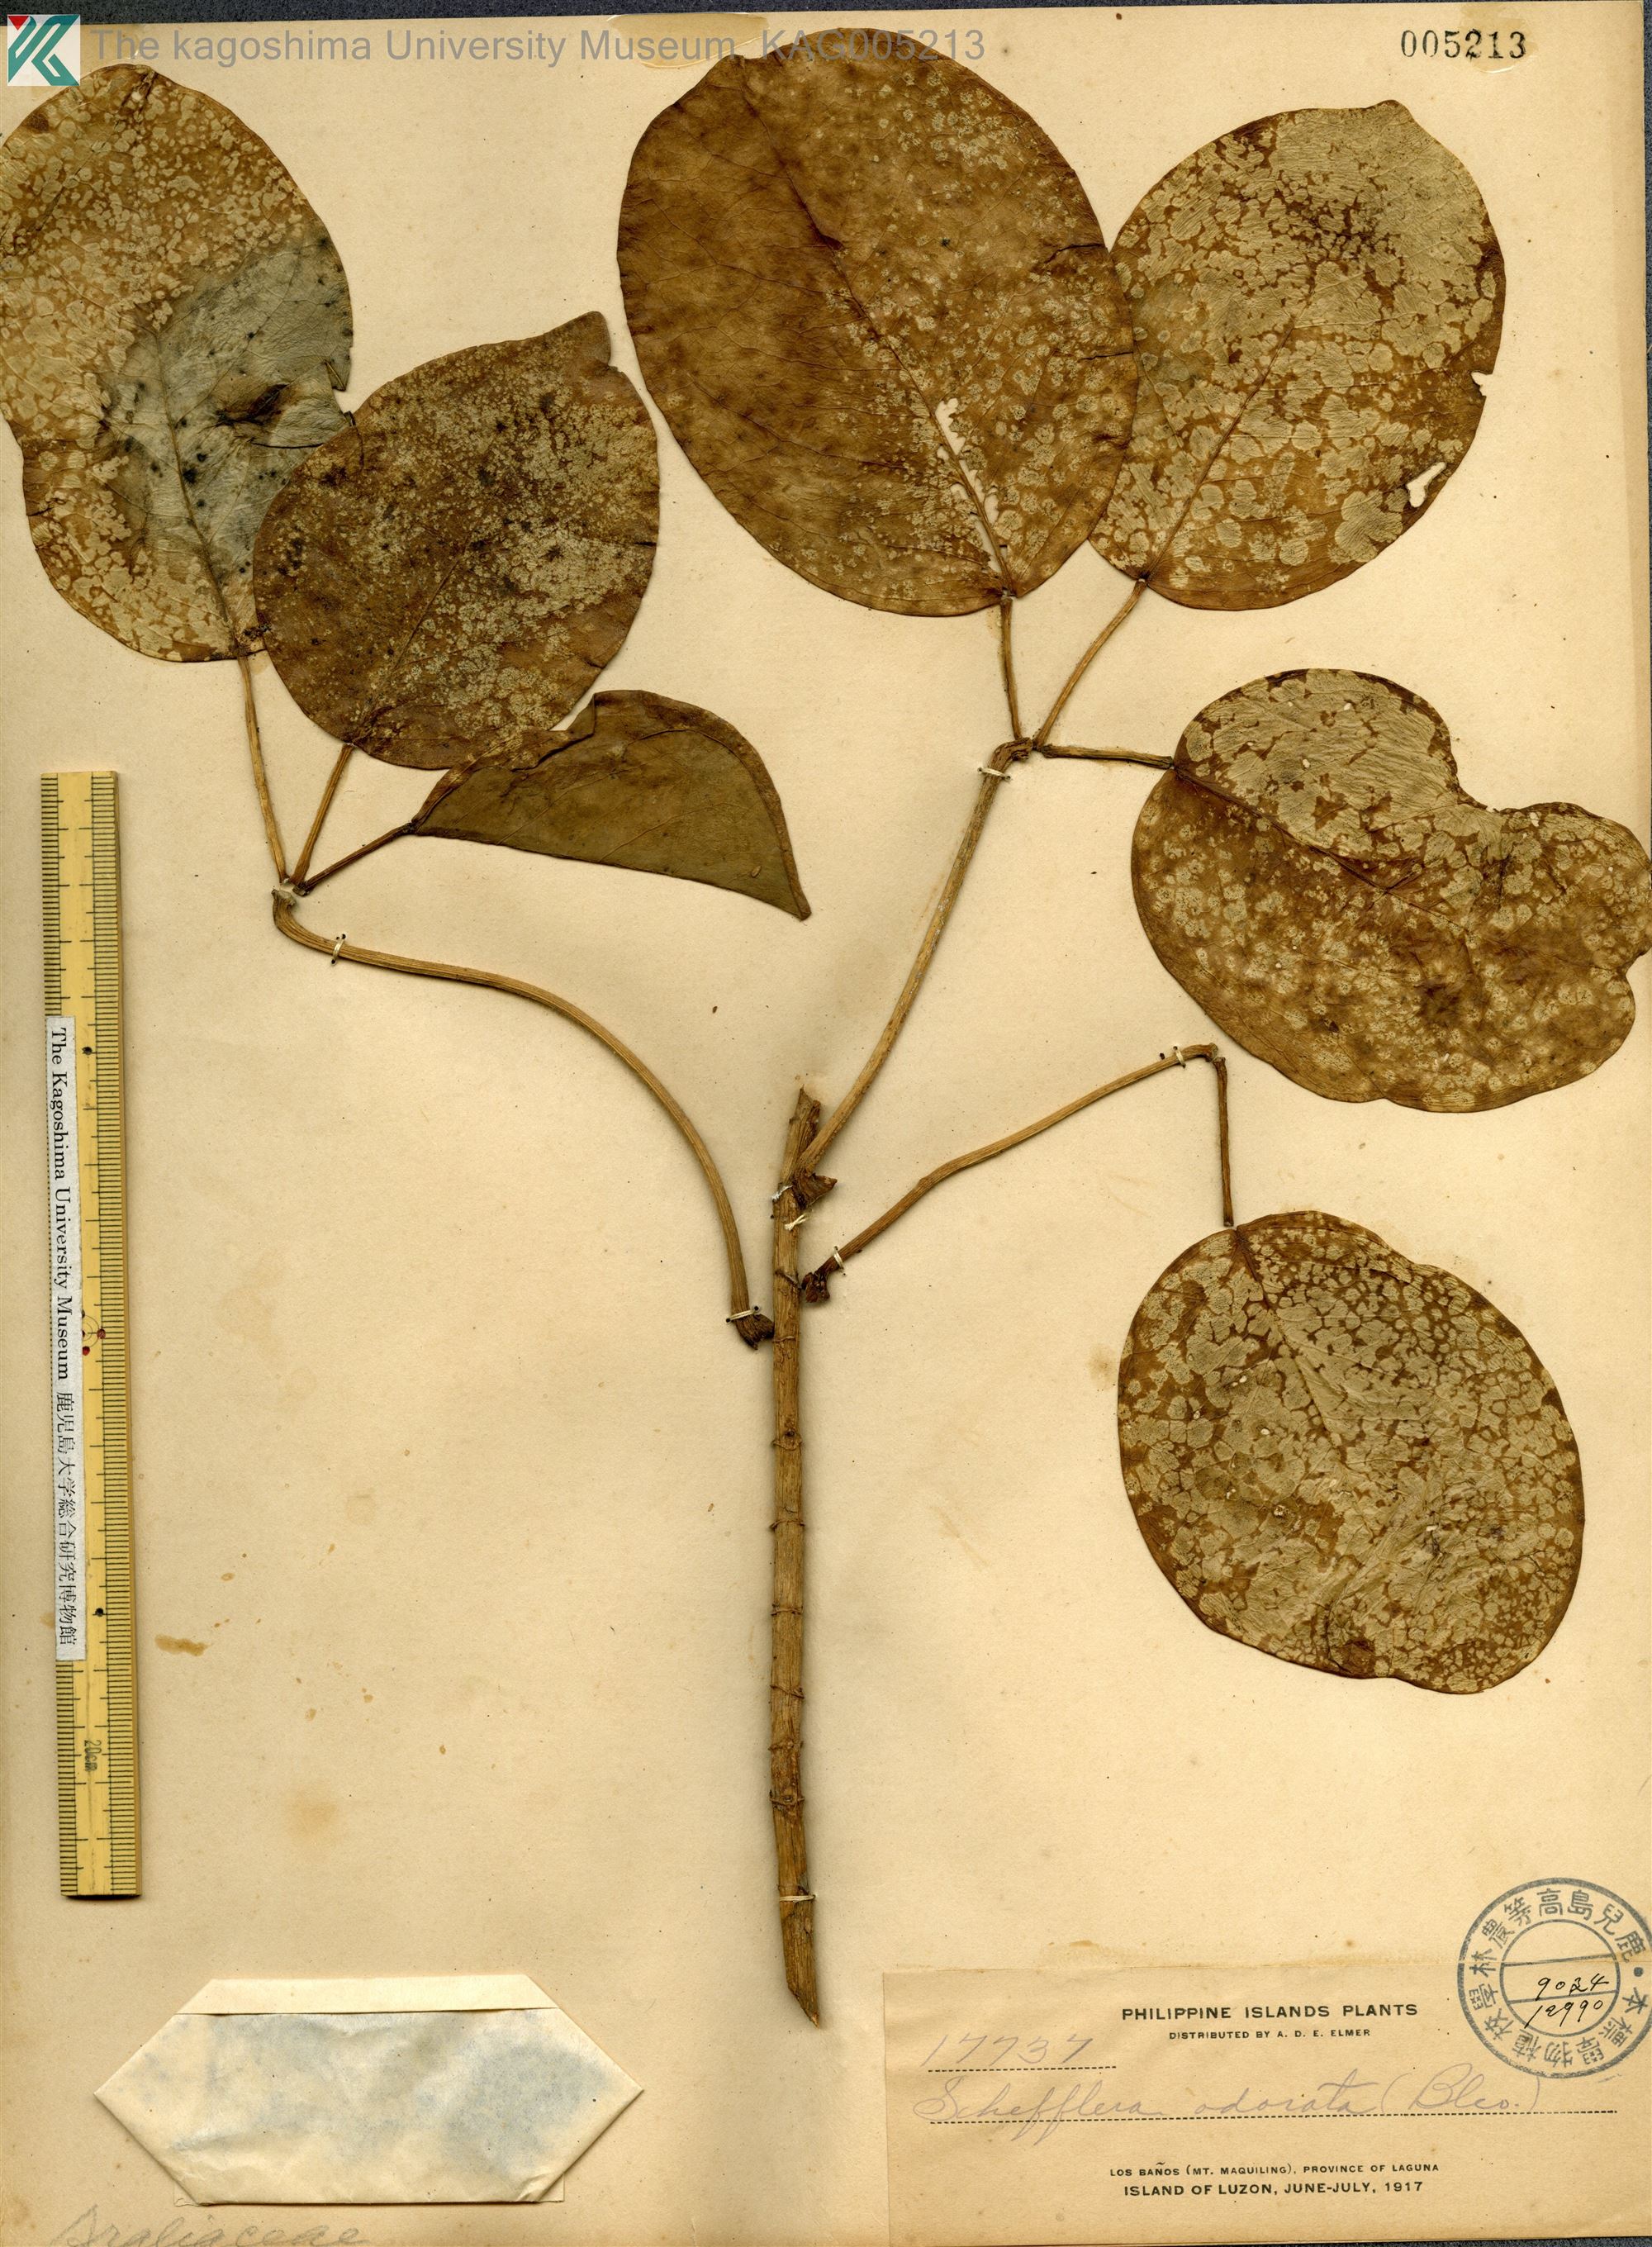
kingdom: Plantae
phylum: Tracheophyta
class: Magnoliopsida
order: Apiales
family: Araliaceae
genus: Heptapleurum
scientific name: Heptapleurum ellipticum
